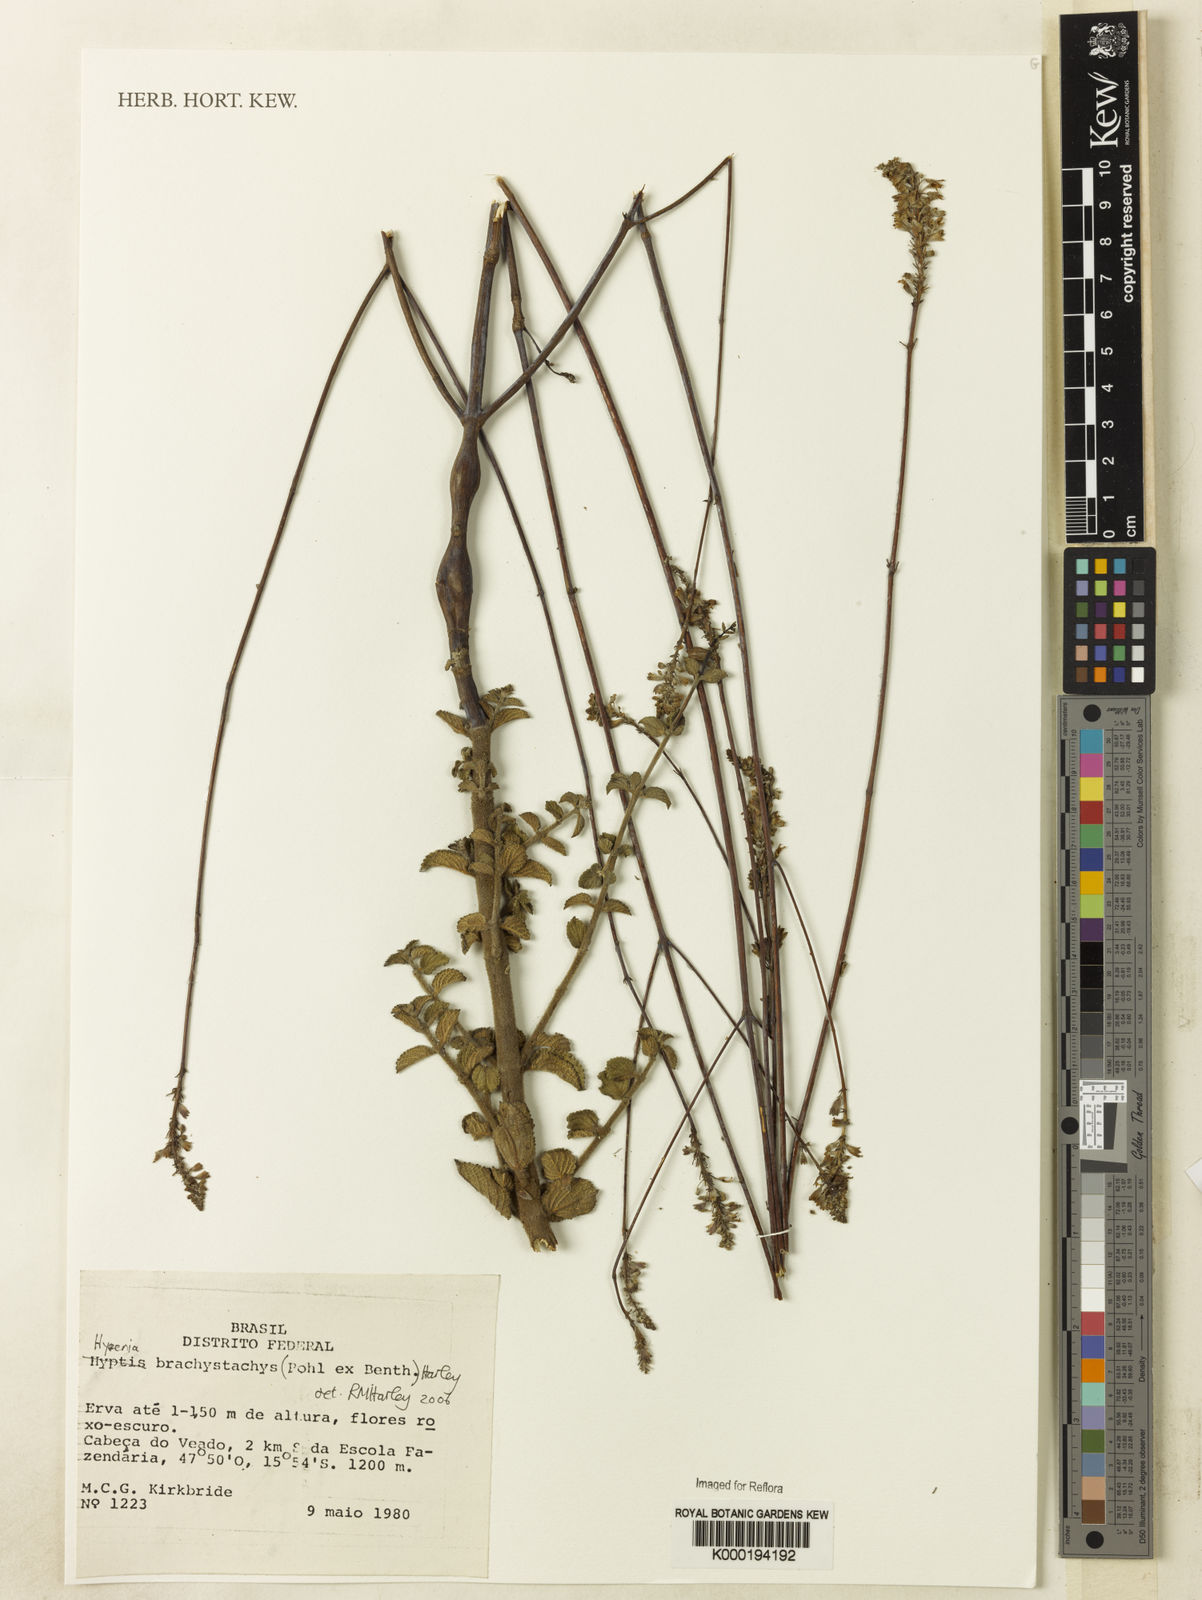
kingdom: Plantae
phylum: Tracheophyta
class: Magnoliopsida
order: Lamiales
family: Lamiaceae
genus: Hypenia
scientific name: Hypenia brachystachys
